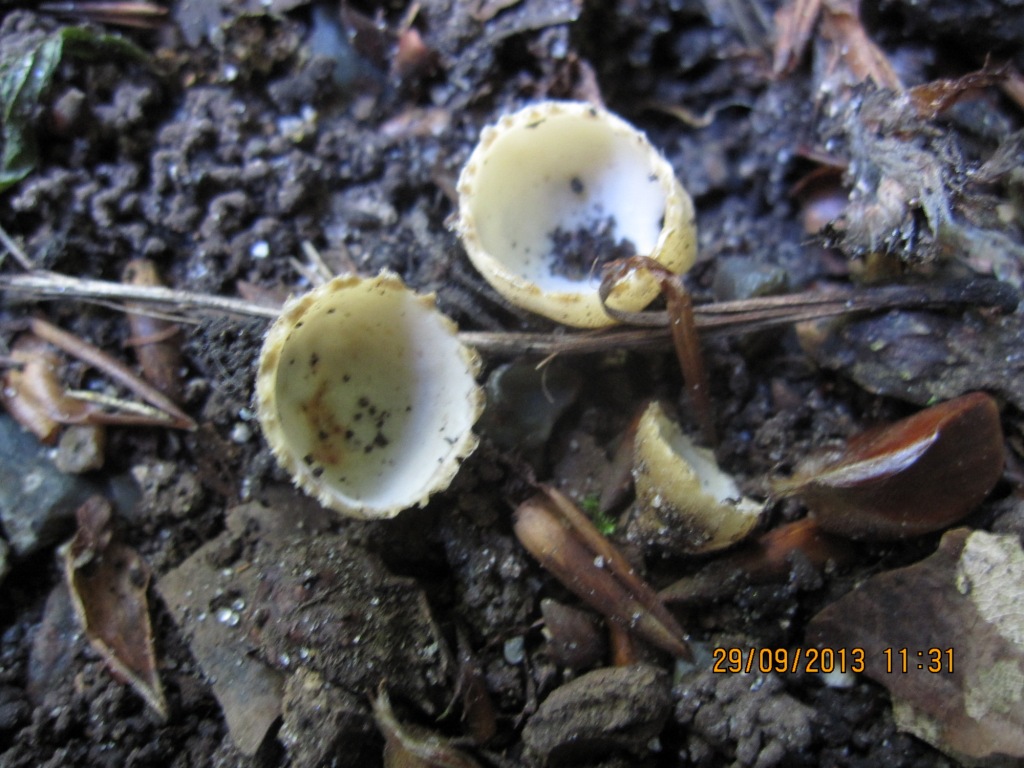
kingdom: Fungi
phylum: Ascomycota
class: Pezizomycetes
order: Pezizales
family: Pyronemataceae
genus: Tarzetta
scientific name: Tarzetta cupularis
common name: gulbrun pokalbæger
